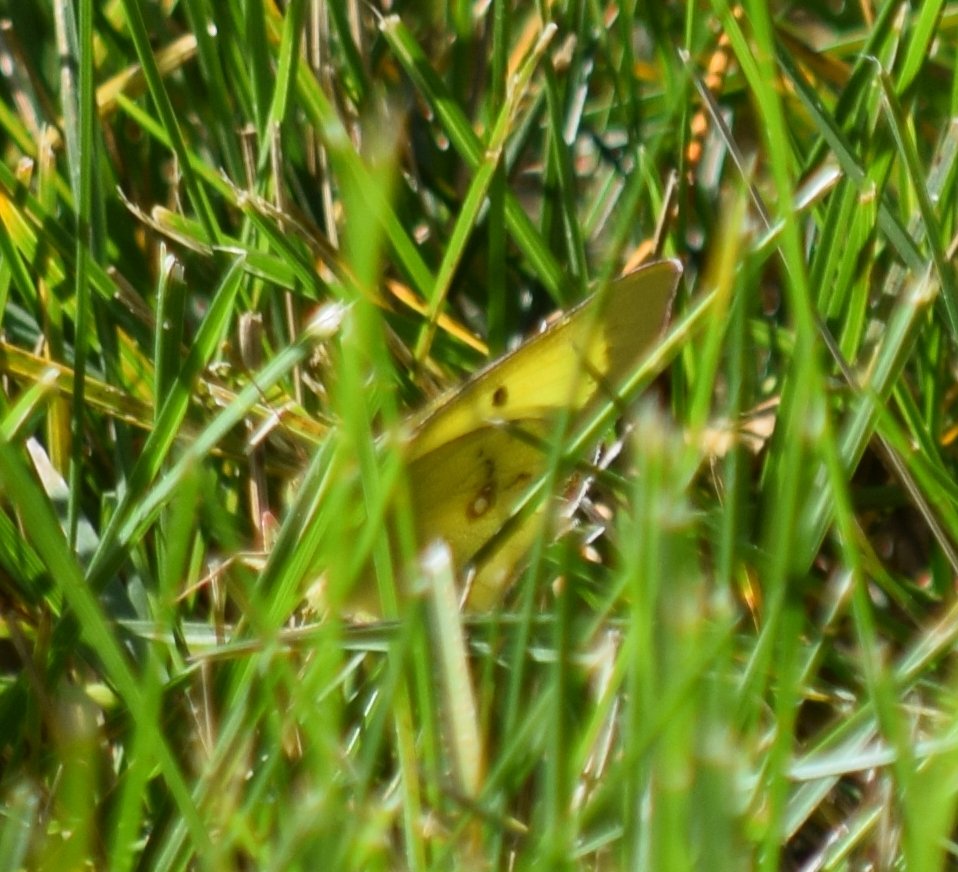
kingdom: Animalia
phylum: Arthropoda
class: Insecta
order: Lepidoptera
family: Pieridae
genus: Colias
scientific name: Colias philodice
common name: Clouded Sulphur
